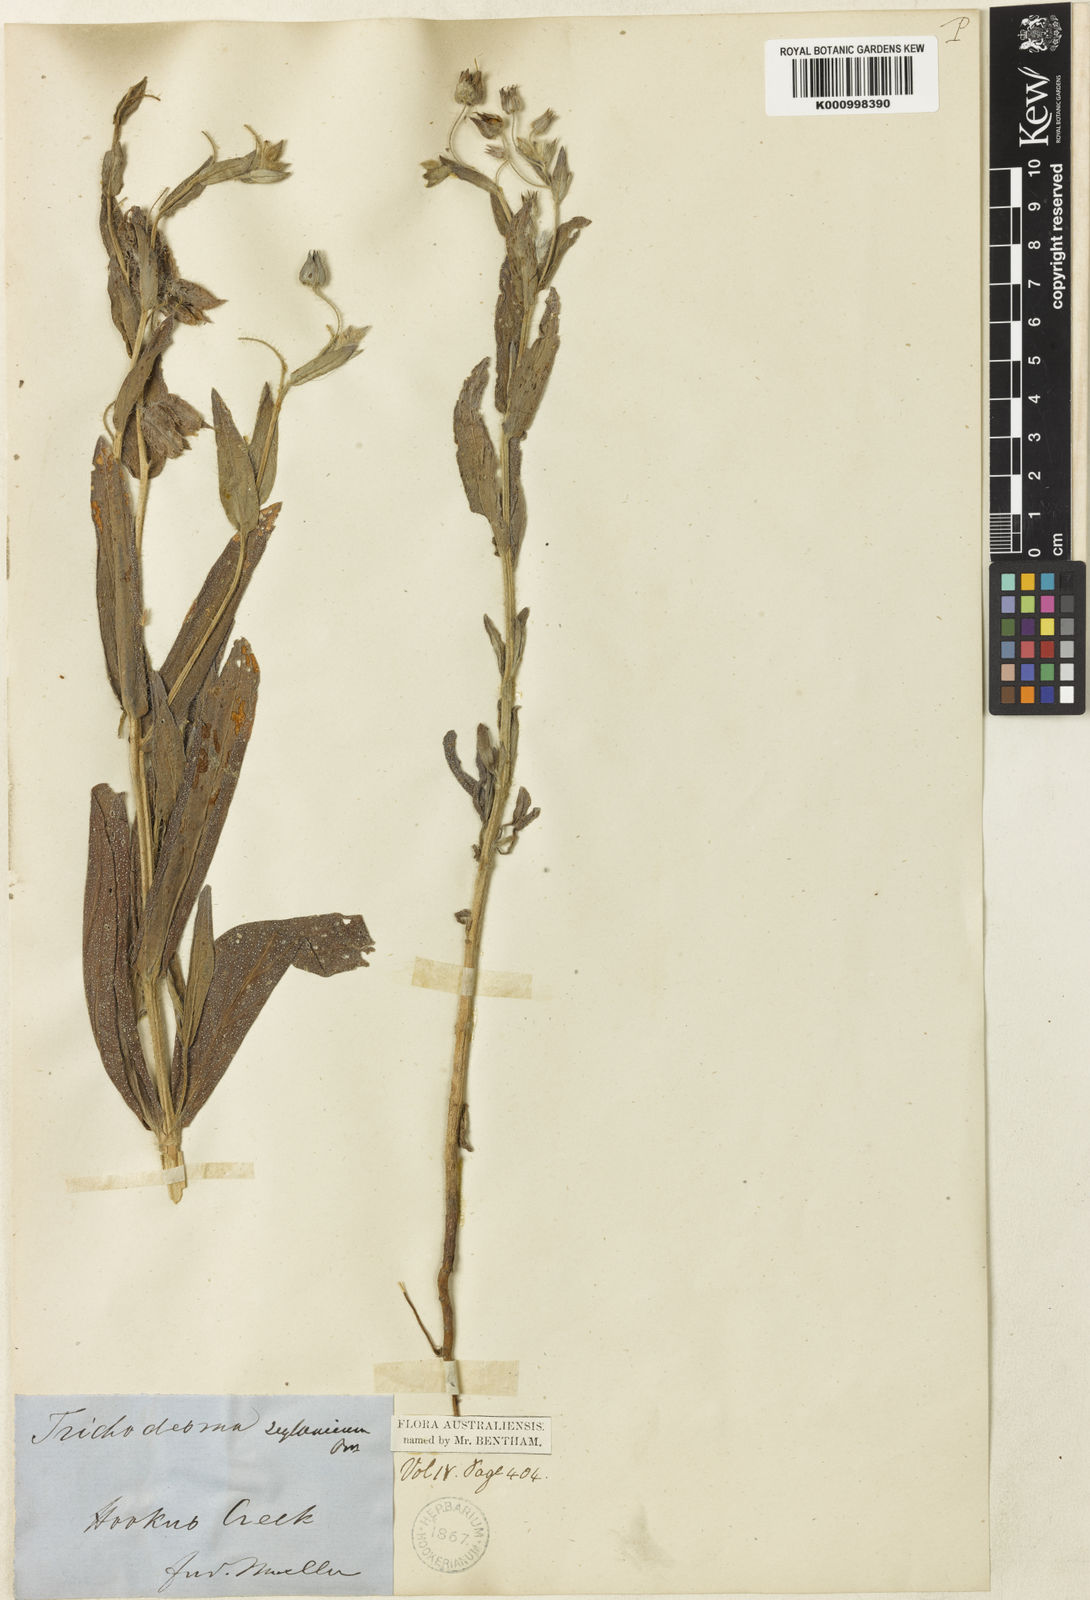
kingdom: Plantae
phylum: Tracheophyta
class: Magnoliopsida
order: Boraginales
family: Boraginaceae
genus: Trichodesma
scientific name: Trichodesma zeylanicum
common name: Camelbush
